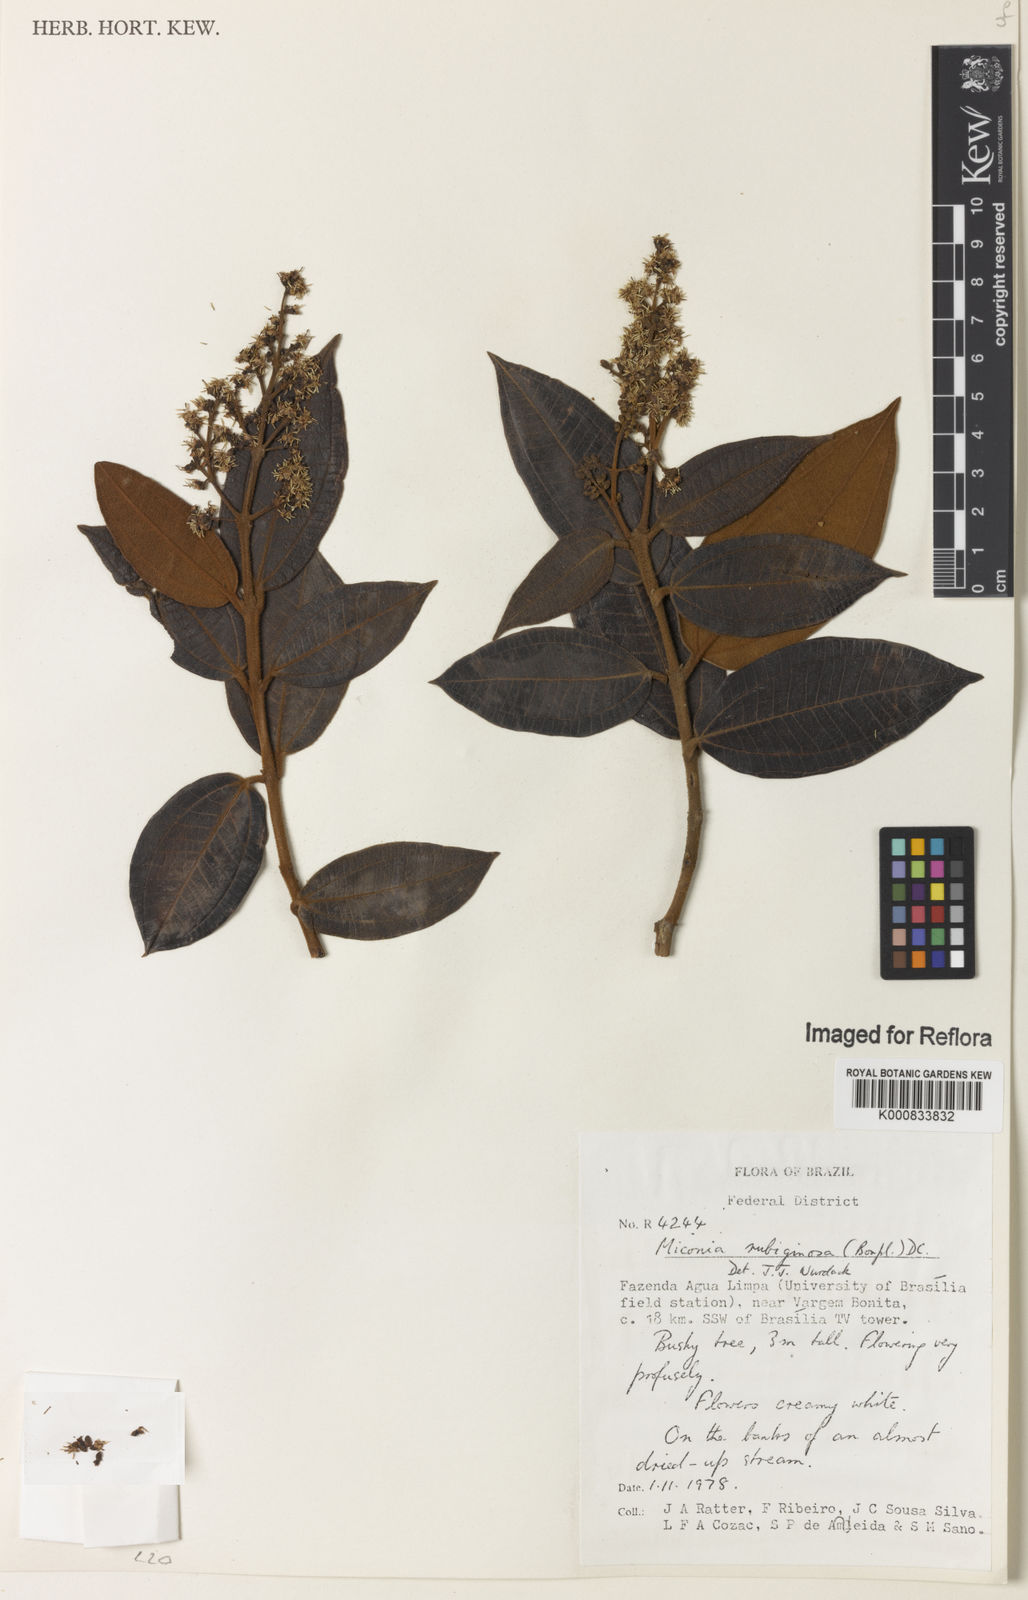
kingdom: Plantae
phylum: Tracheophyta
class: Magnoliopsida
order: Myrtales
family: Melastomataceae
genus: Miconia
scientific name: Miconia rubiginosa
